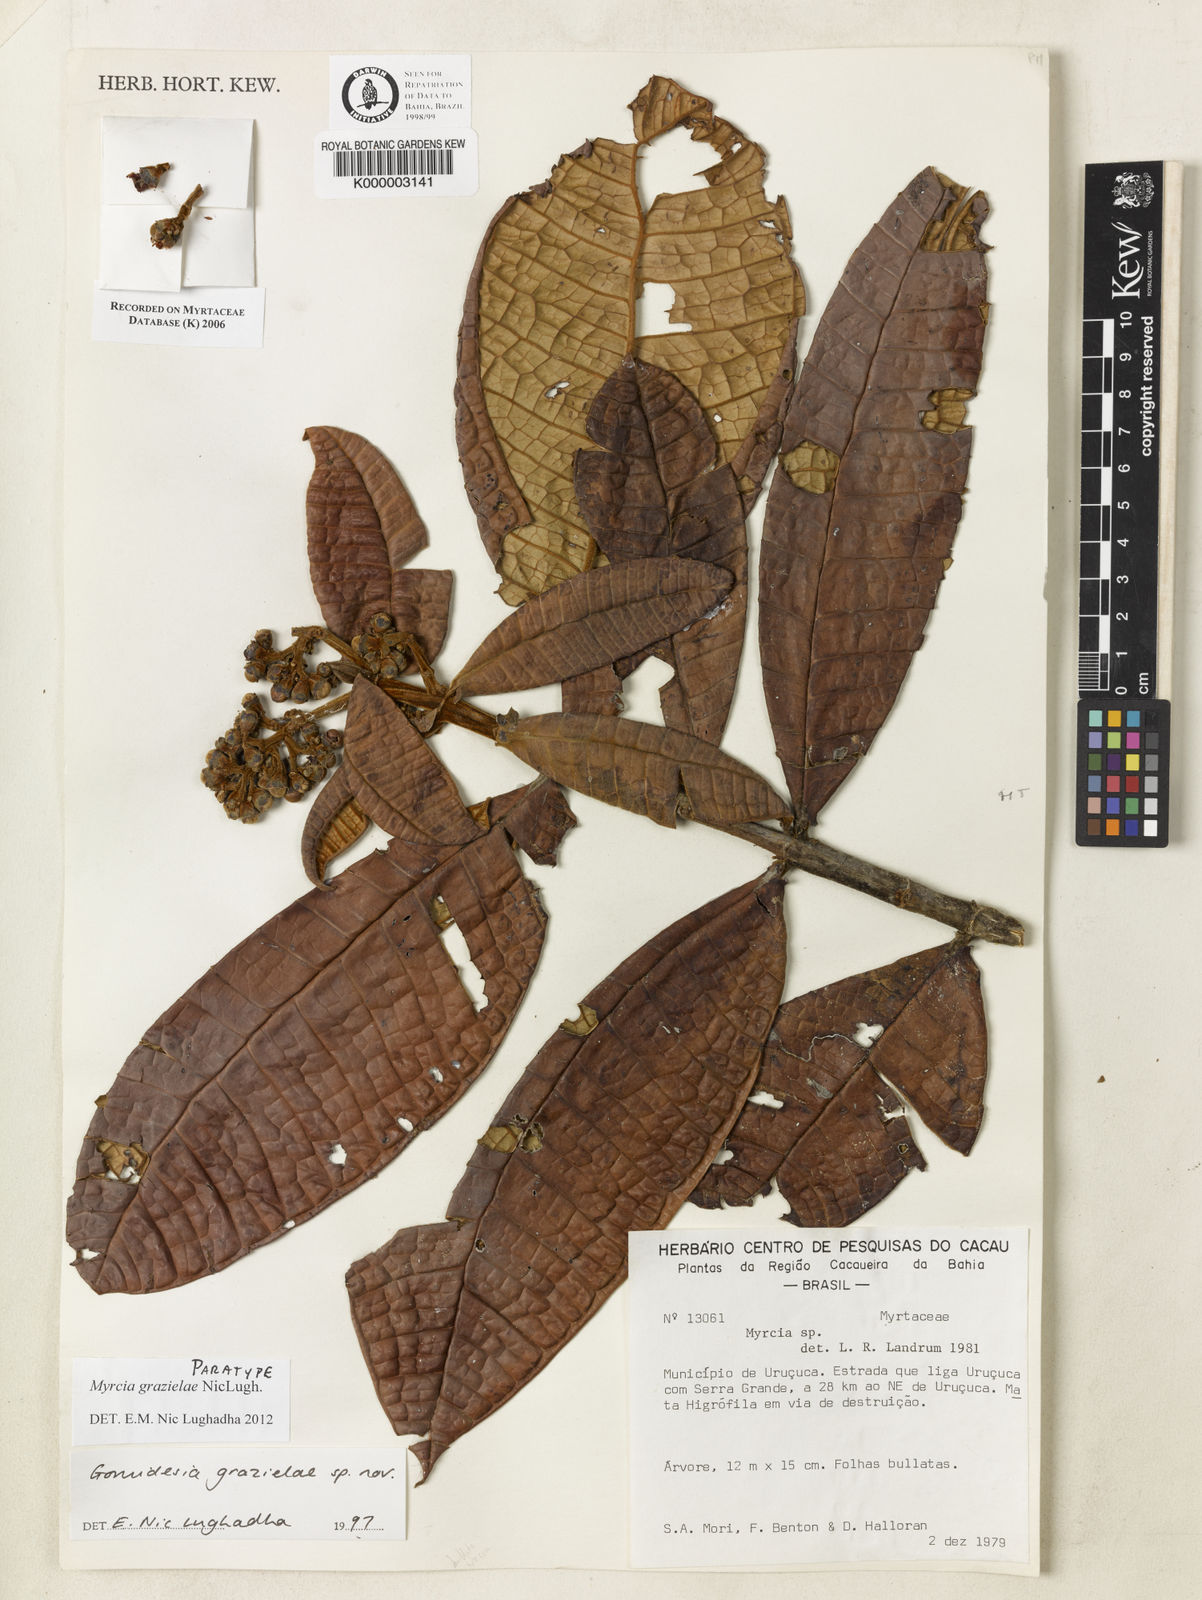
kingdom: Plantae
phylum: Tracheophyta
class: Magnoliopsida
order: Myrtales
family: Myrtaceae
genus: Myrcia
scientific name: Myrcia grazielae
